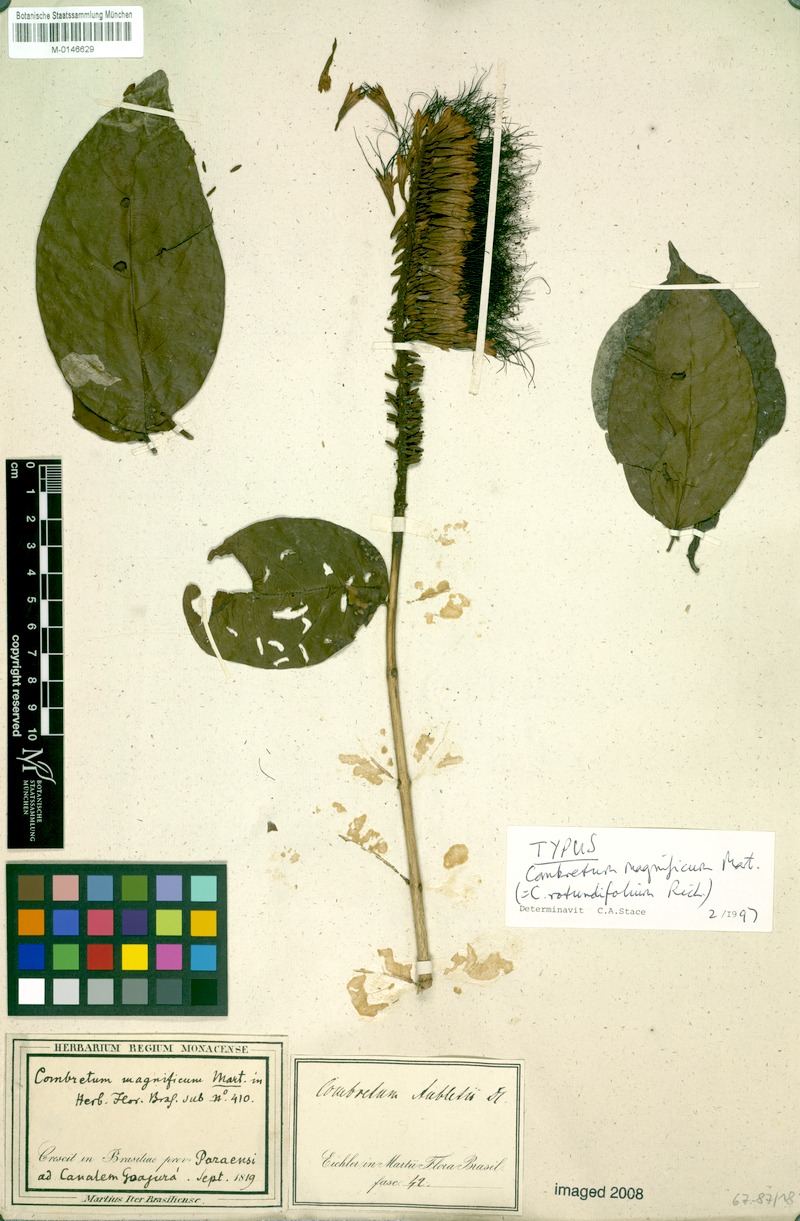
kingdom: Plantae
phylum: Tracheophyta
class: Magnoliopsida
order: Myrtales
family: Combretaceae
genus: Combretum
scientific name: Combretum rotundifolium
